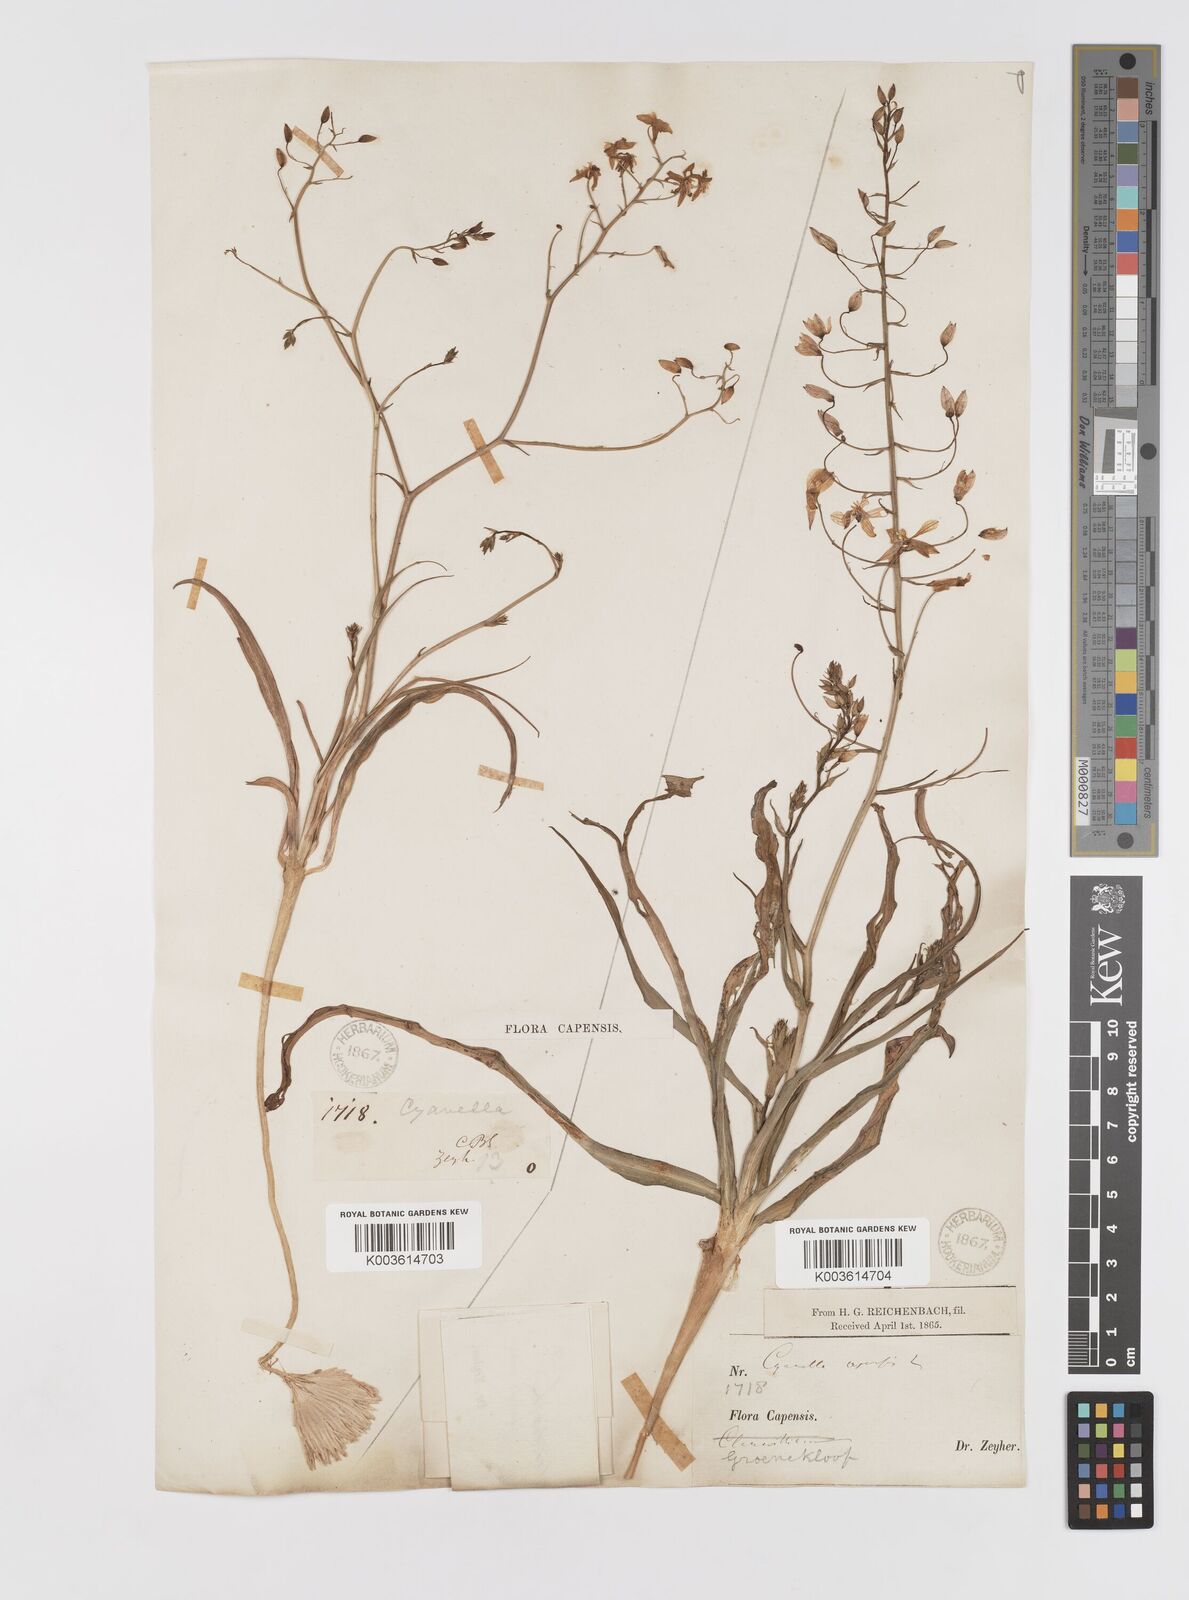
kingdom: Plantae
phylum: Tracheophyta
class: Liliopsida
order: Asparagales
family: Tecophilaeaceae
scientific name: Tecophilaeaceae
